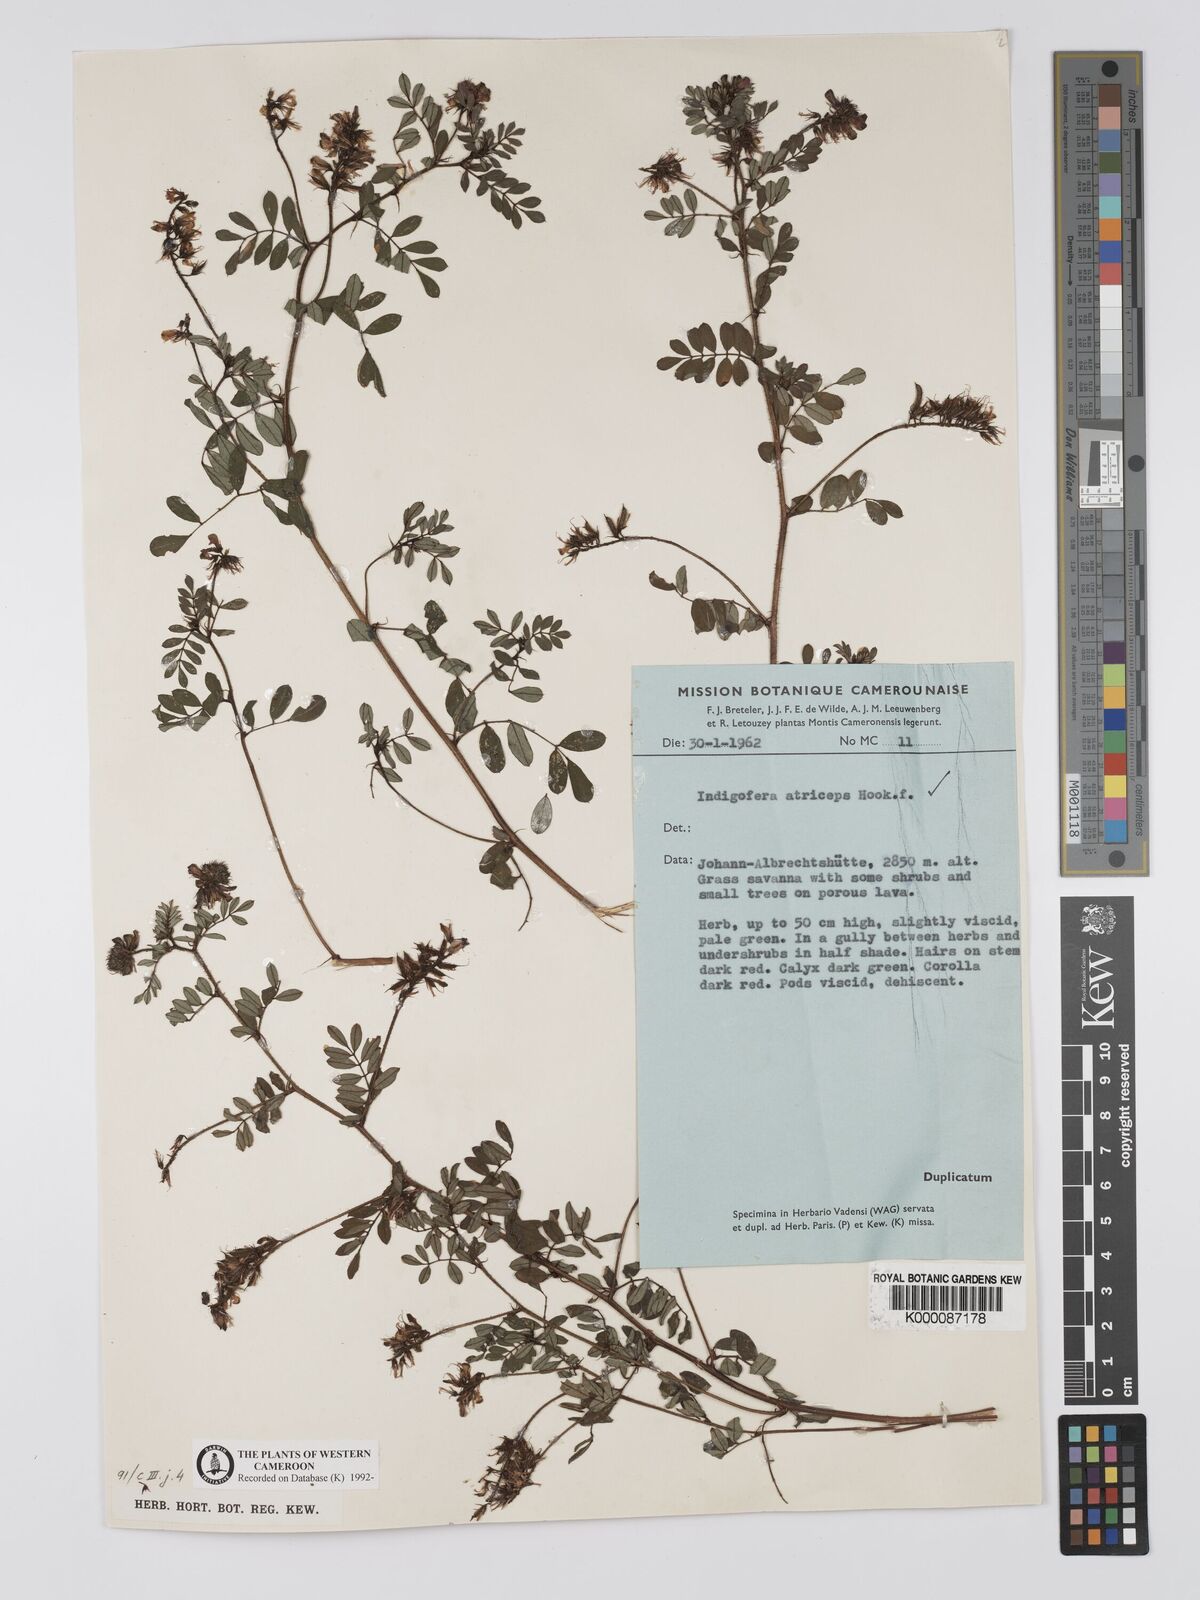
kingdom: Plantae
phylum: Tracheophyta
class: Magnoliopsida
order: Fabales
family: Fabaceae
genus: Indigofera
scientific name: Indigofera atriceps
